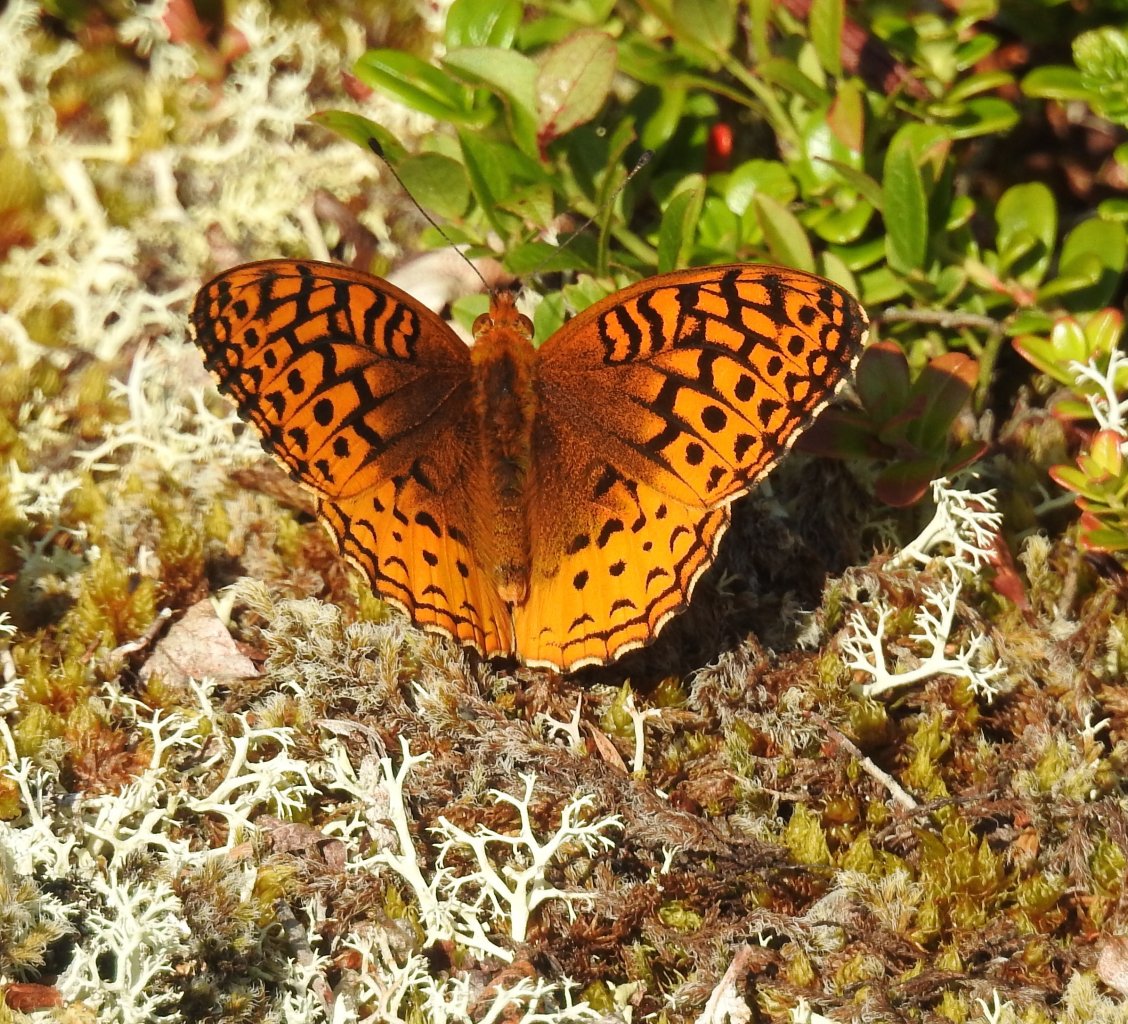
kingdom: Animalia
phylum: Arthropoda
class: Insecta
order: Lepidoptera
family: Nymphalidae
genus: Speyeria
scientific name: Speyeria cybele
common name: Great Spangled Fritillary
